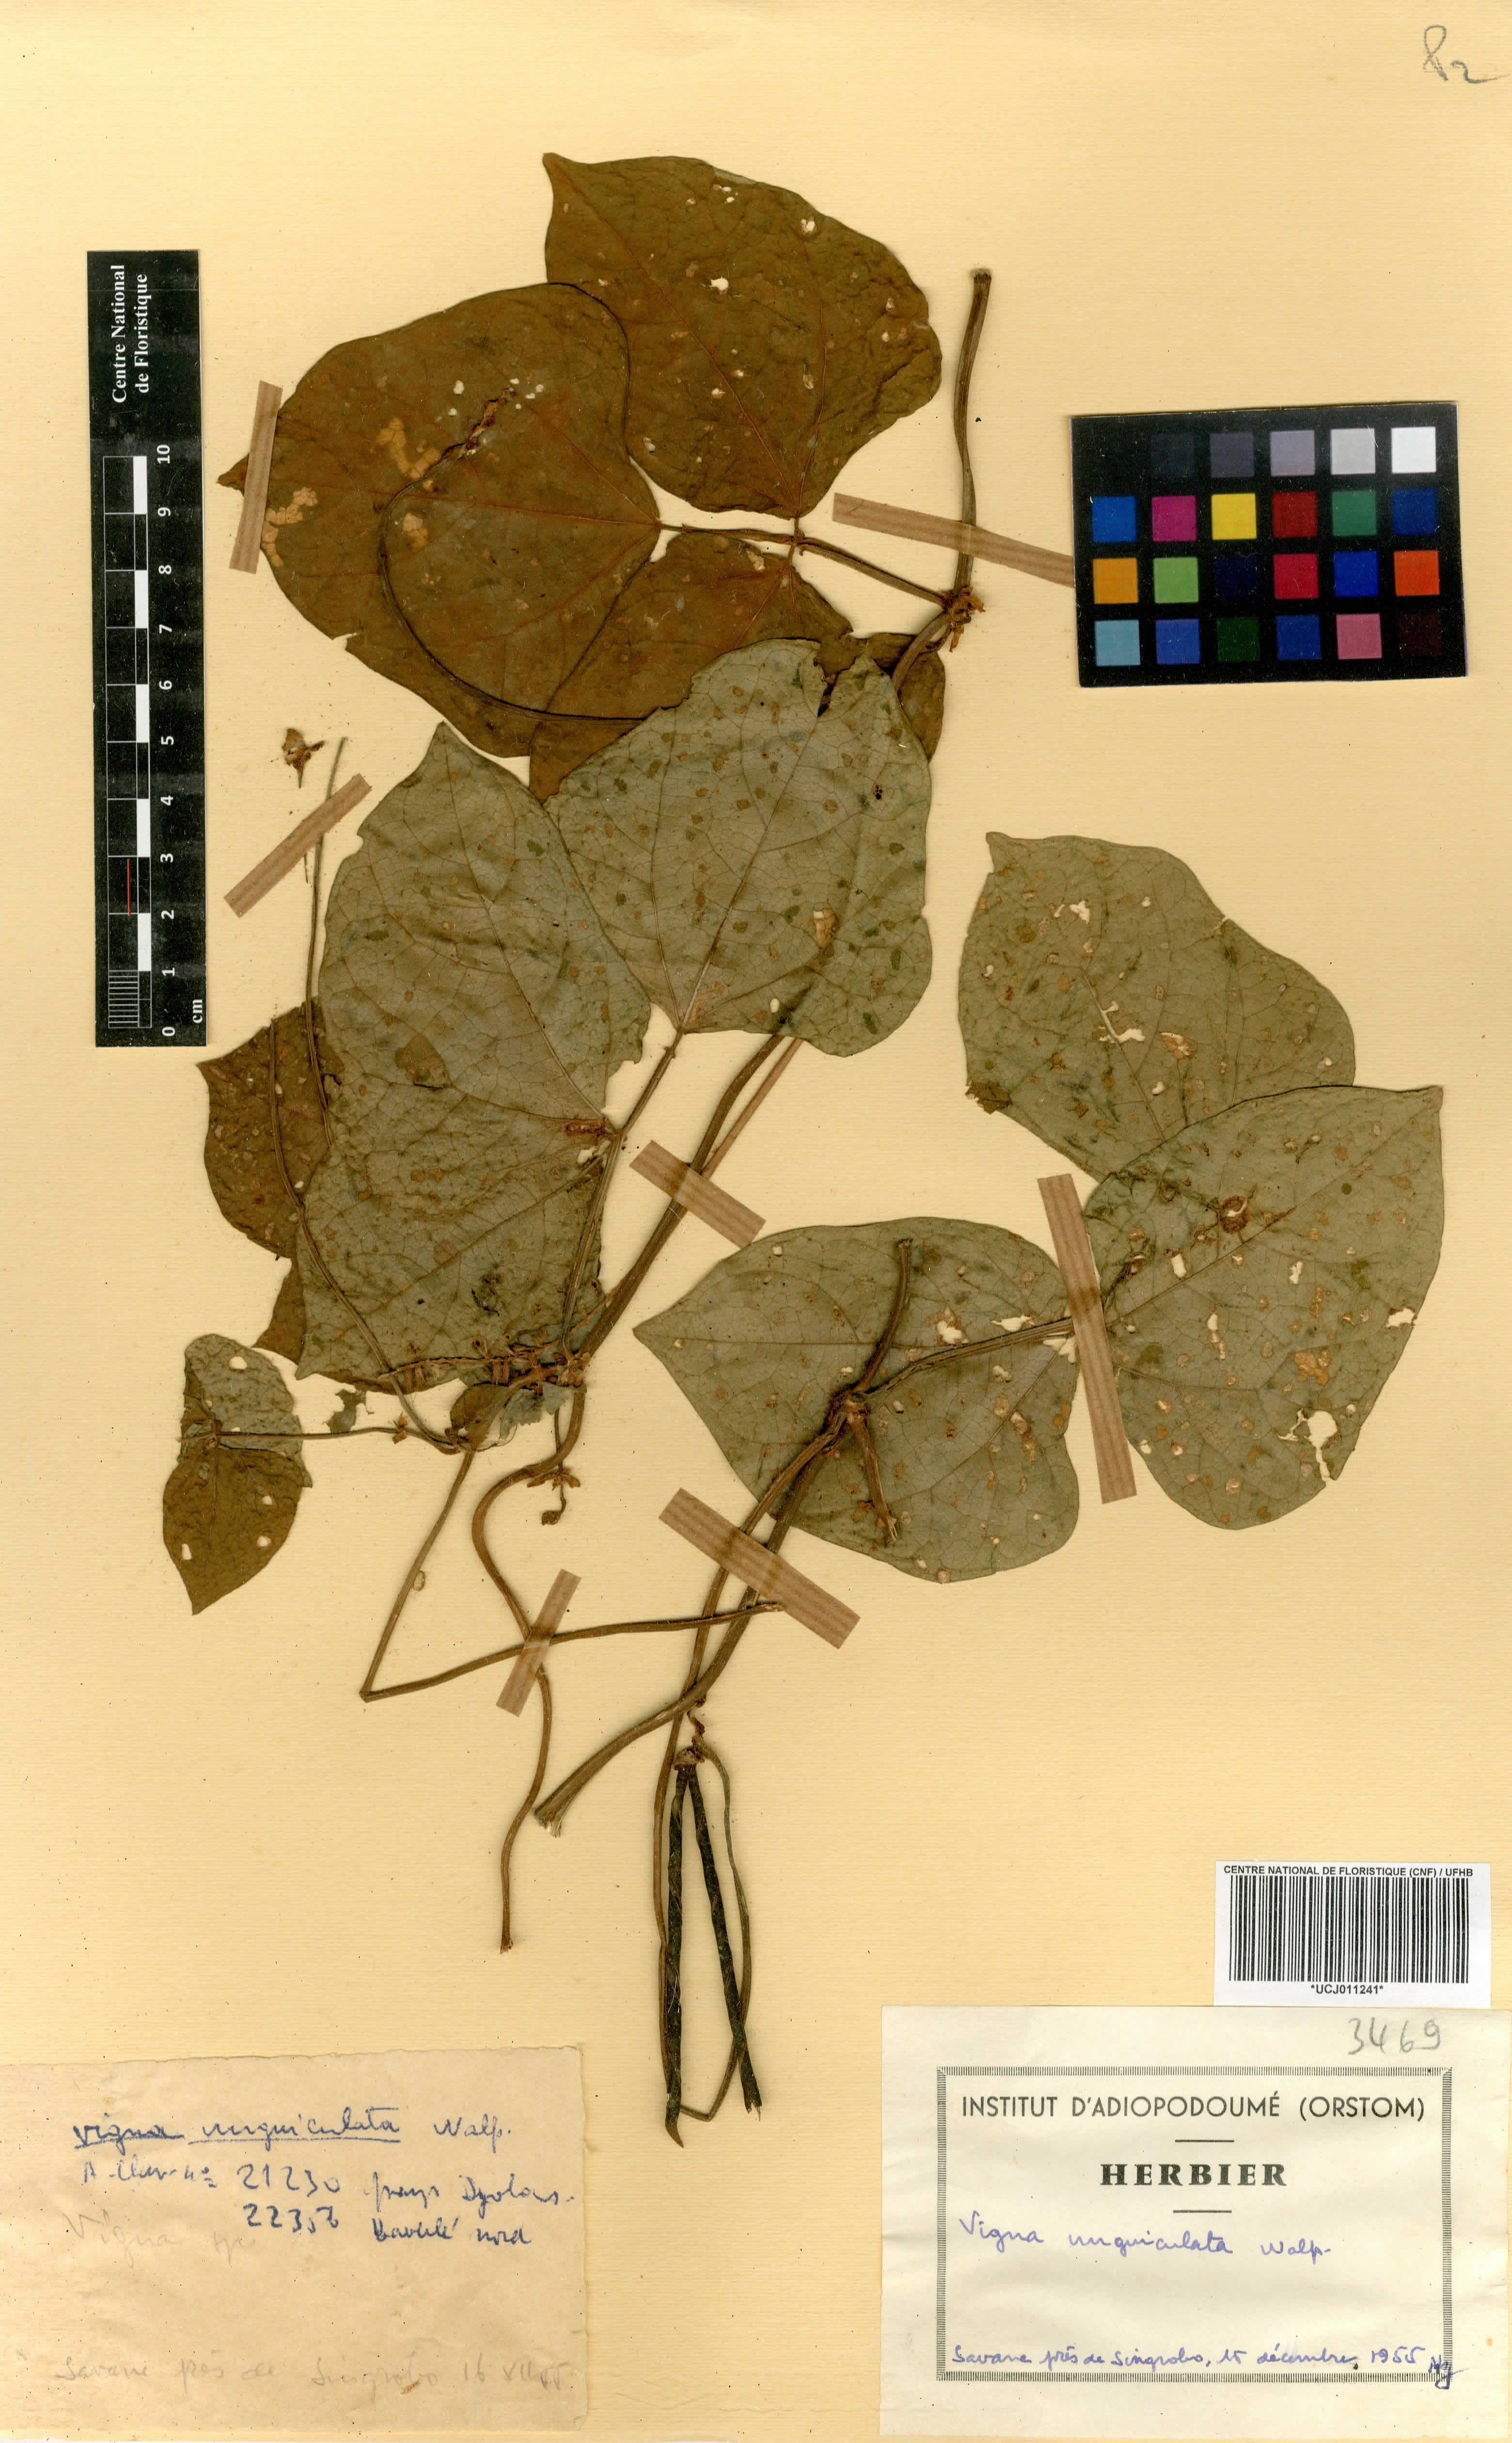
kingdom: Plantae
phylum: Tracheophyta
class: Magnoliopsida
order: Fabales
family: Fabaceae
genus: Vigna
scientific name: Vigna unguiculata
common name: Cowpea
